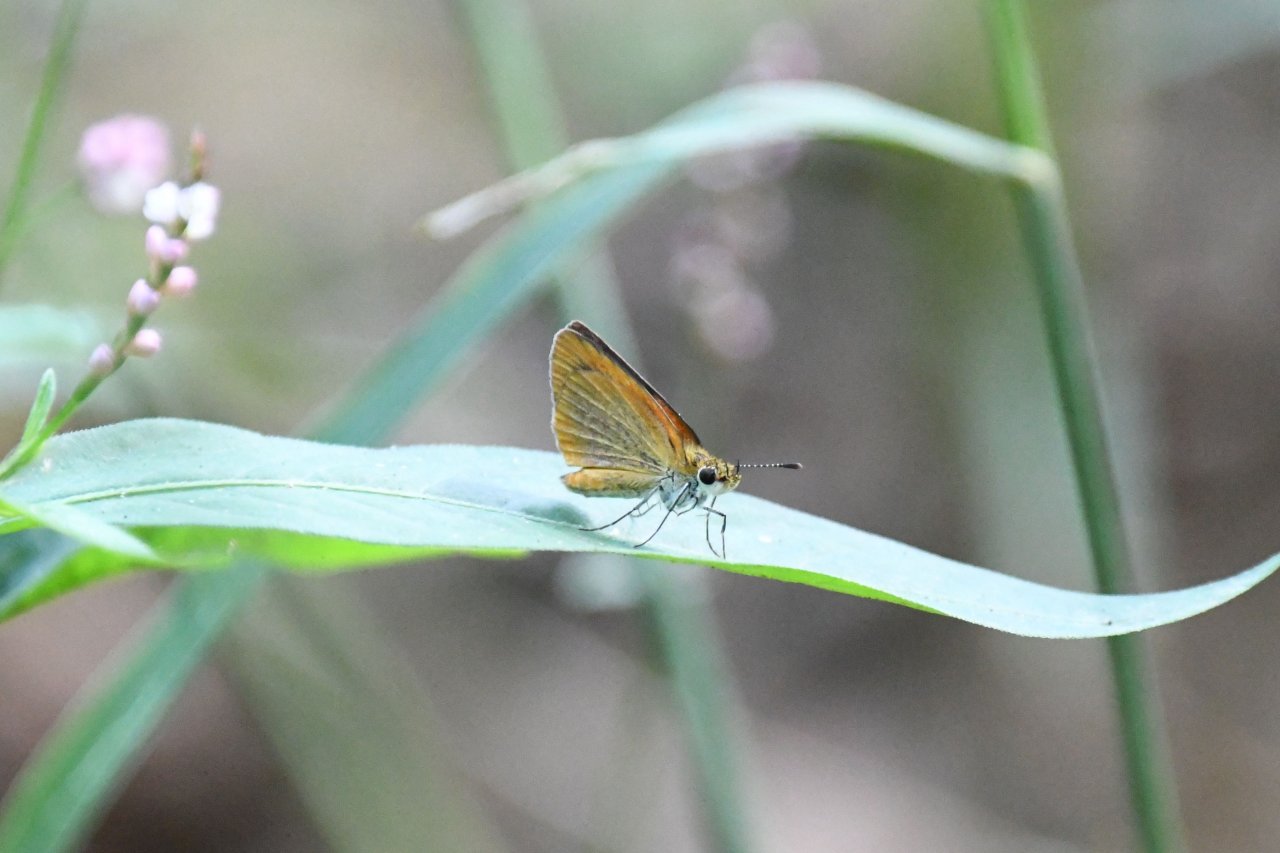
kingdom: Animalia
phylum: Arthropoda
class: Insecta
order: Lepidoptera
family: Hesperiidae
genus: Ancyloxypha
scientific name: Ancyloxypha numitor
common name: Least Skipper
